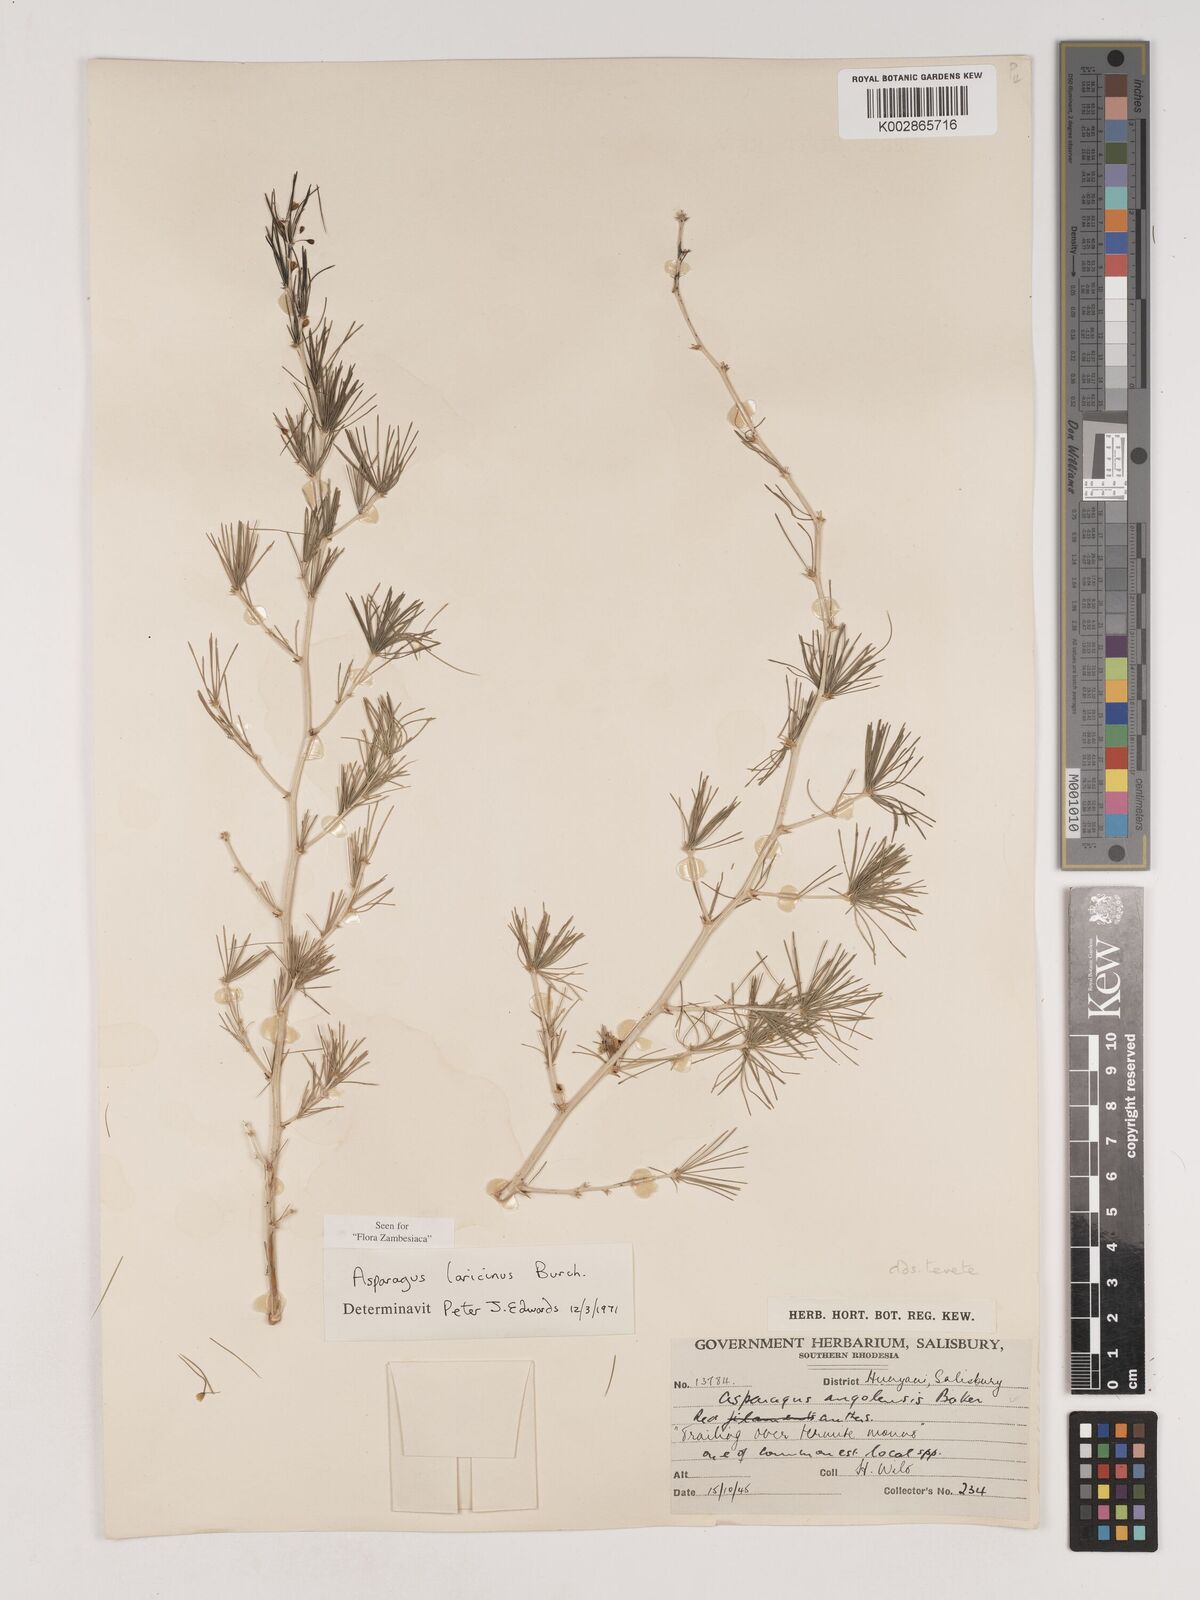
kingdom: Plantae
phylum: Tracheophyta
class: Liliopsida
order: Asparagales
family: Asparagaceae
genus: Asparagus
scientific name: Asparagus laricinus
